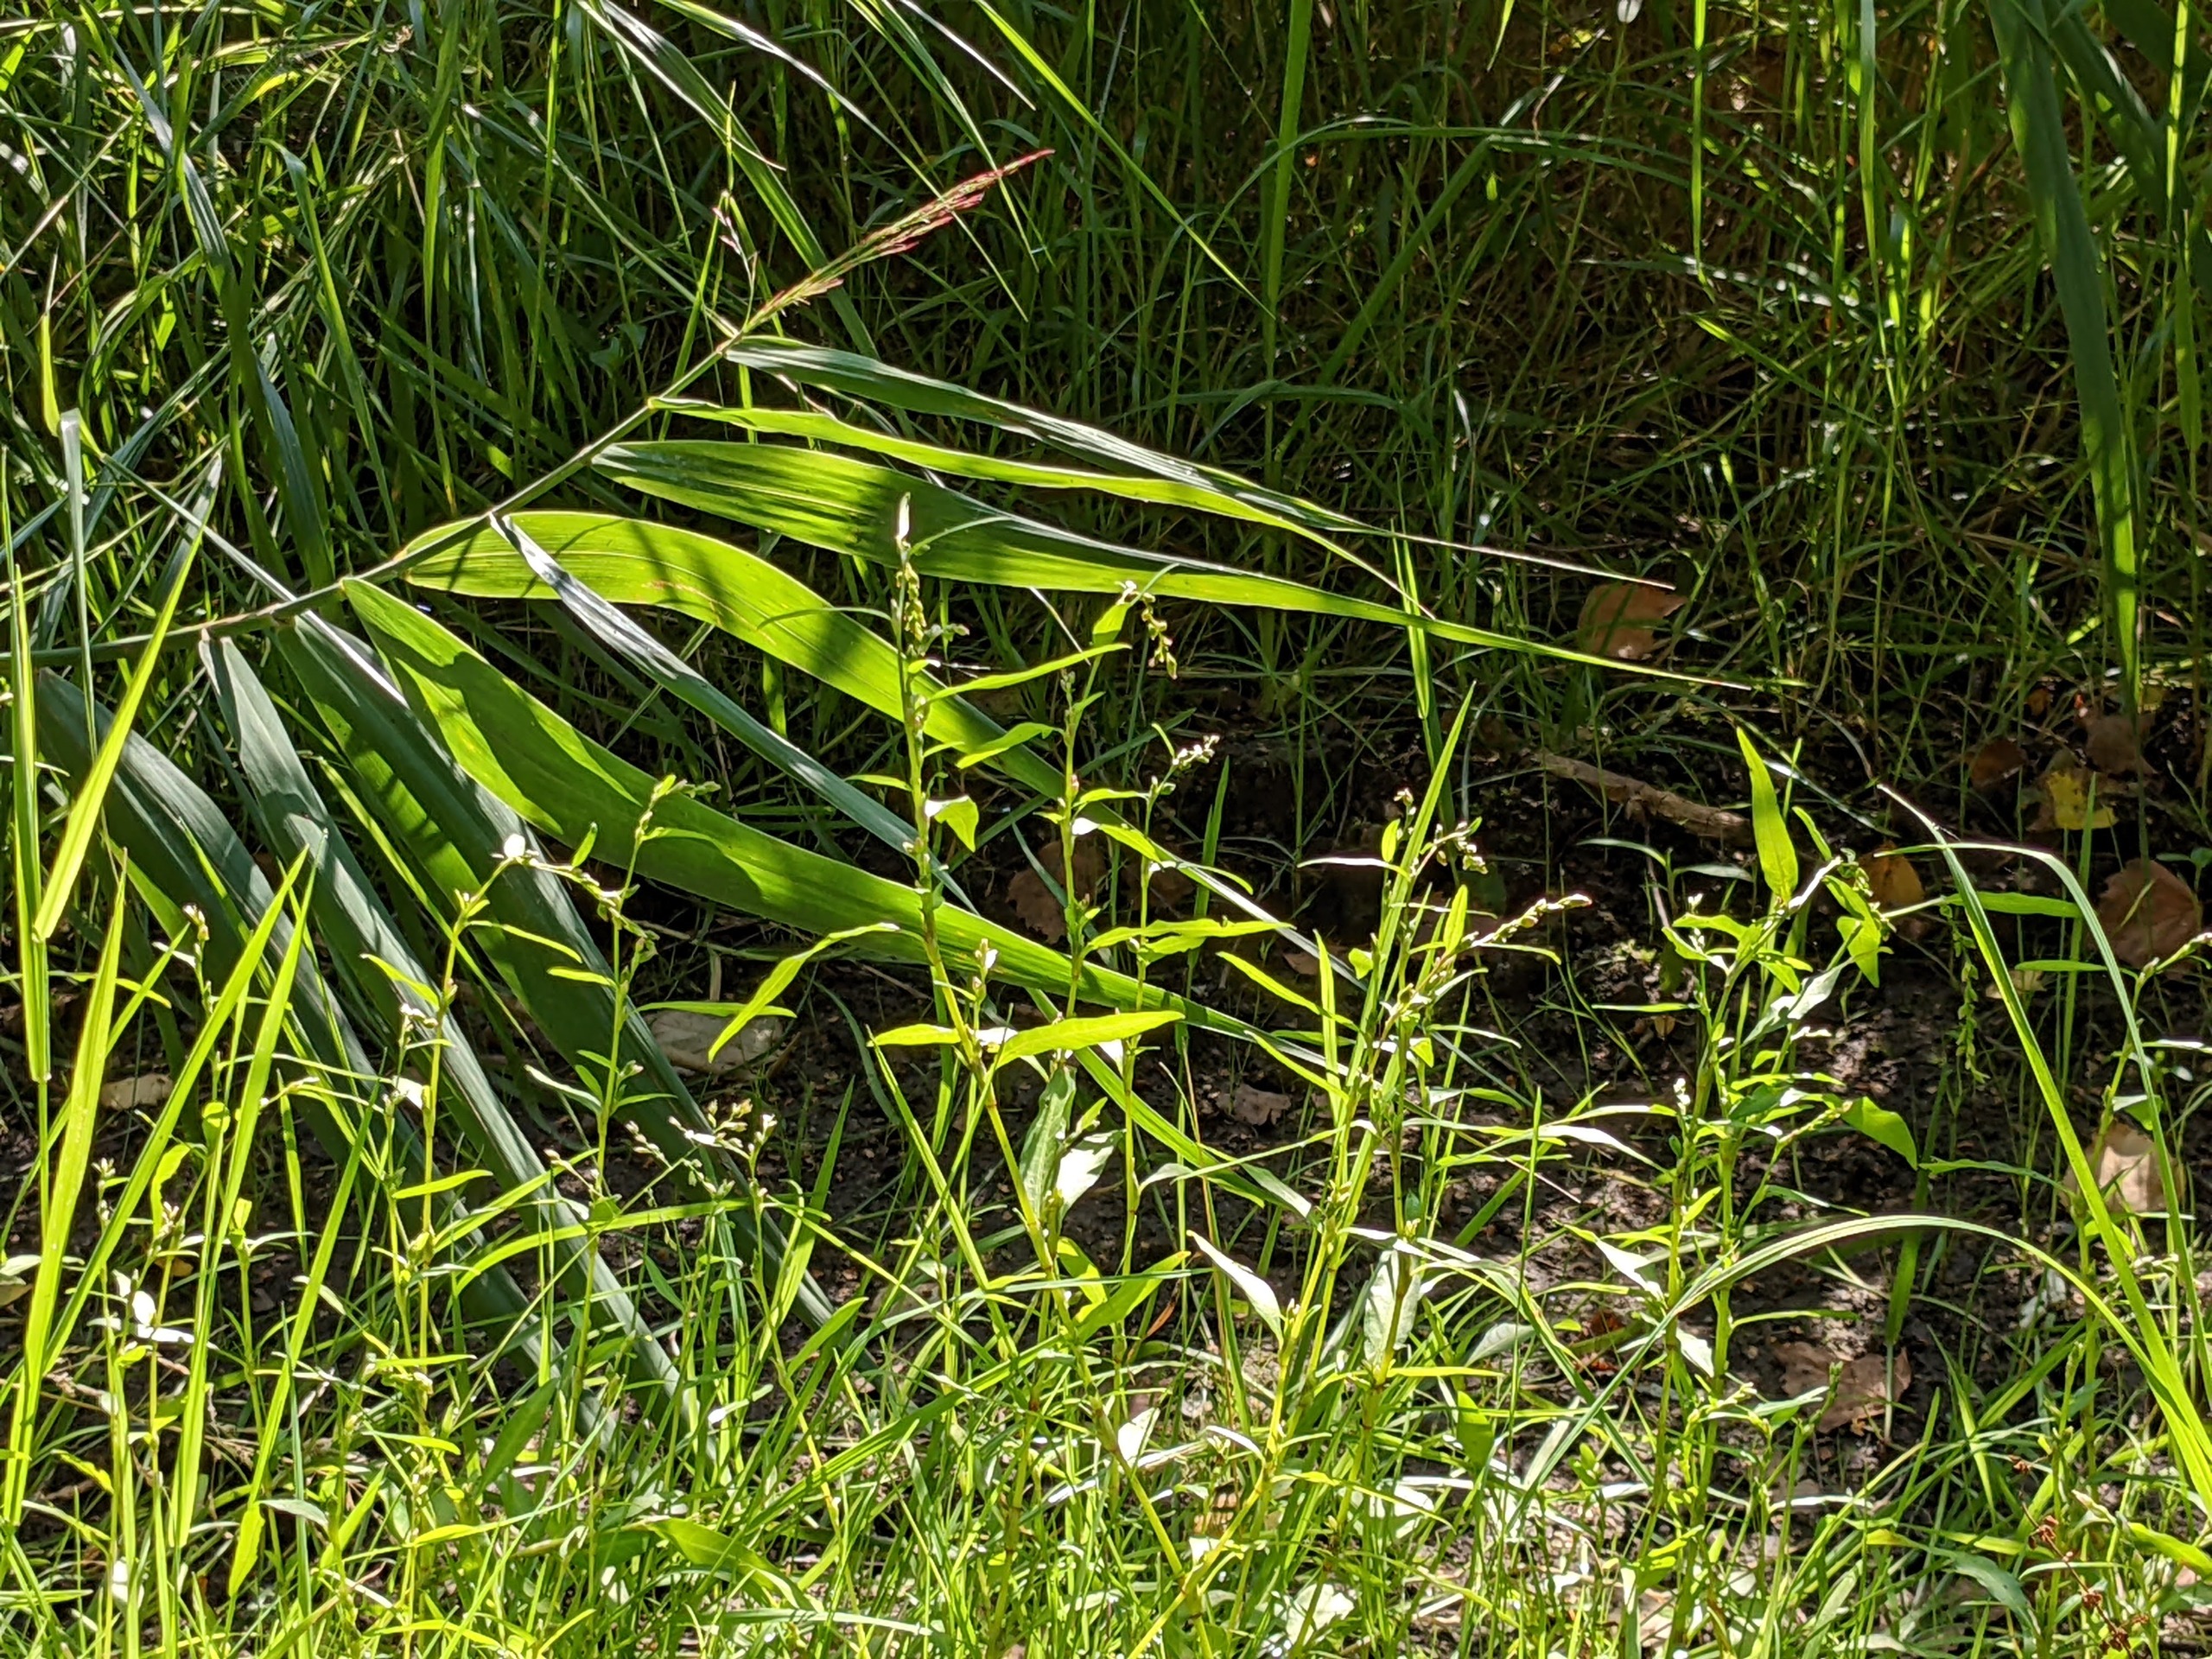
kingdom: Plantae
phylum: Tracheophyta
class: Magnoliopsida
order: Caryophyllales
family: Polygonaceae
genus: Persicaria
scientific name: Persicaria hydropiper
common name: Bidende pileurt
